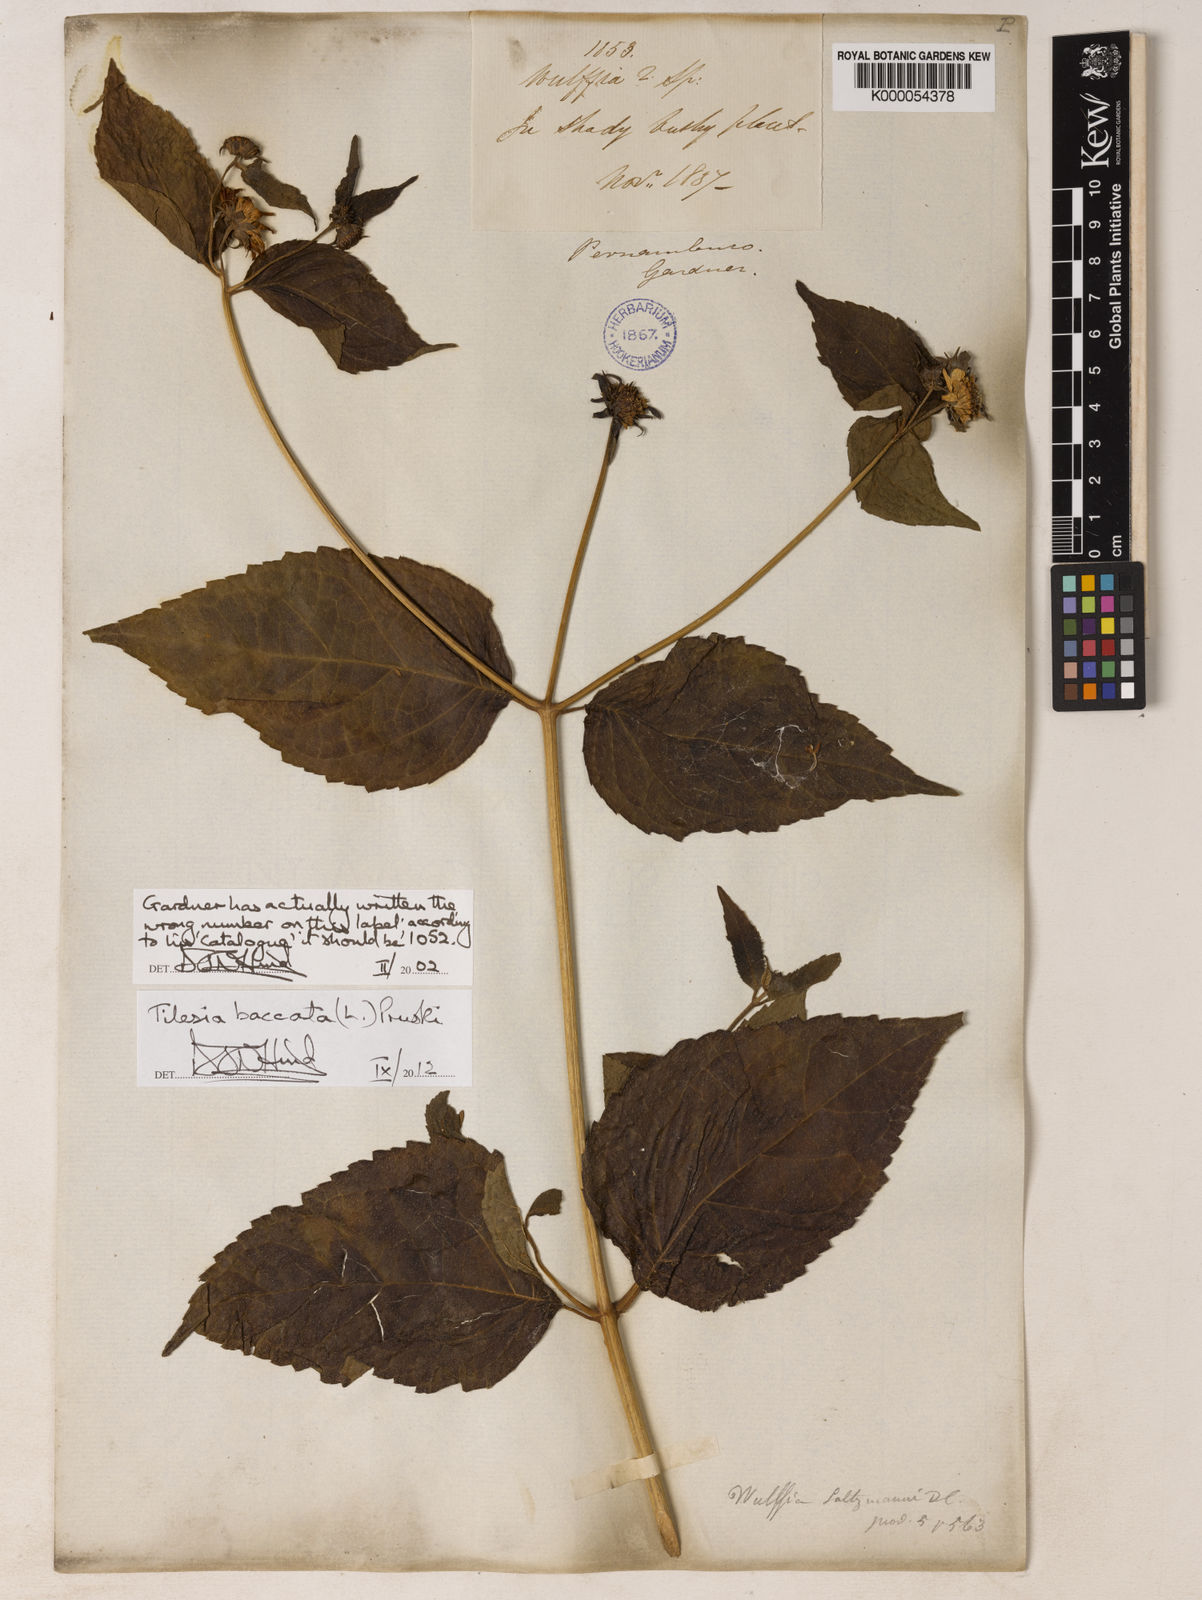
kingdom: Plantae
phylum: Tracheophyta
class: Magnoliopsida
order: Asterales
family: Asteraceae
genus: Tilesia
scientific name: Tilesia baccata
